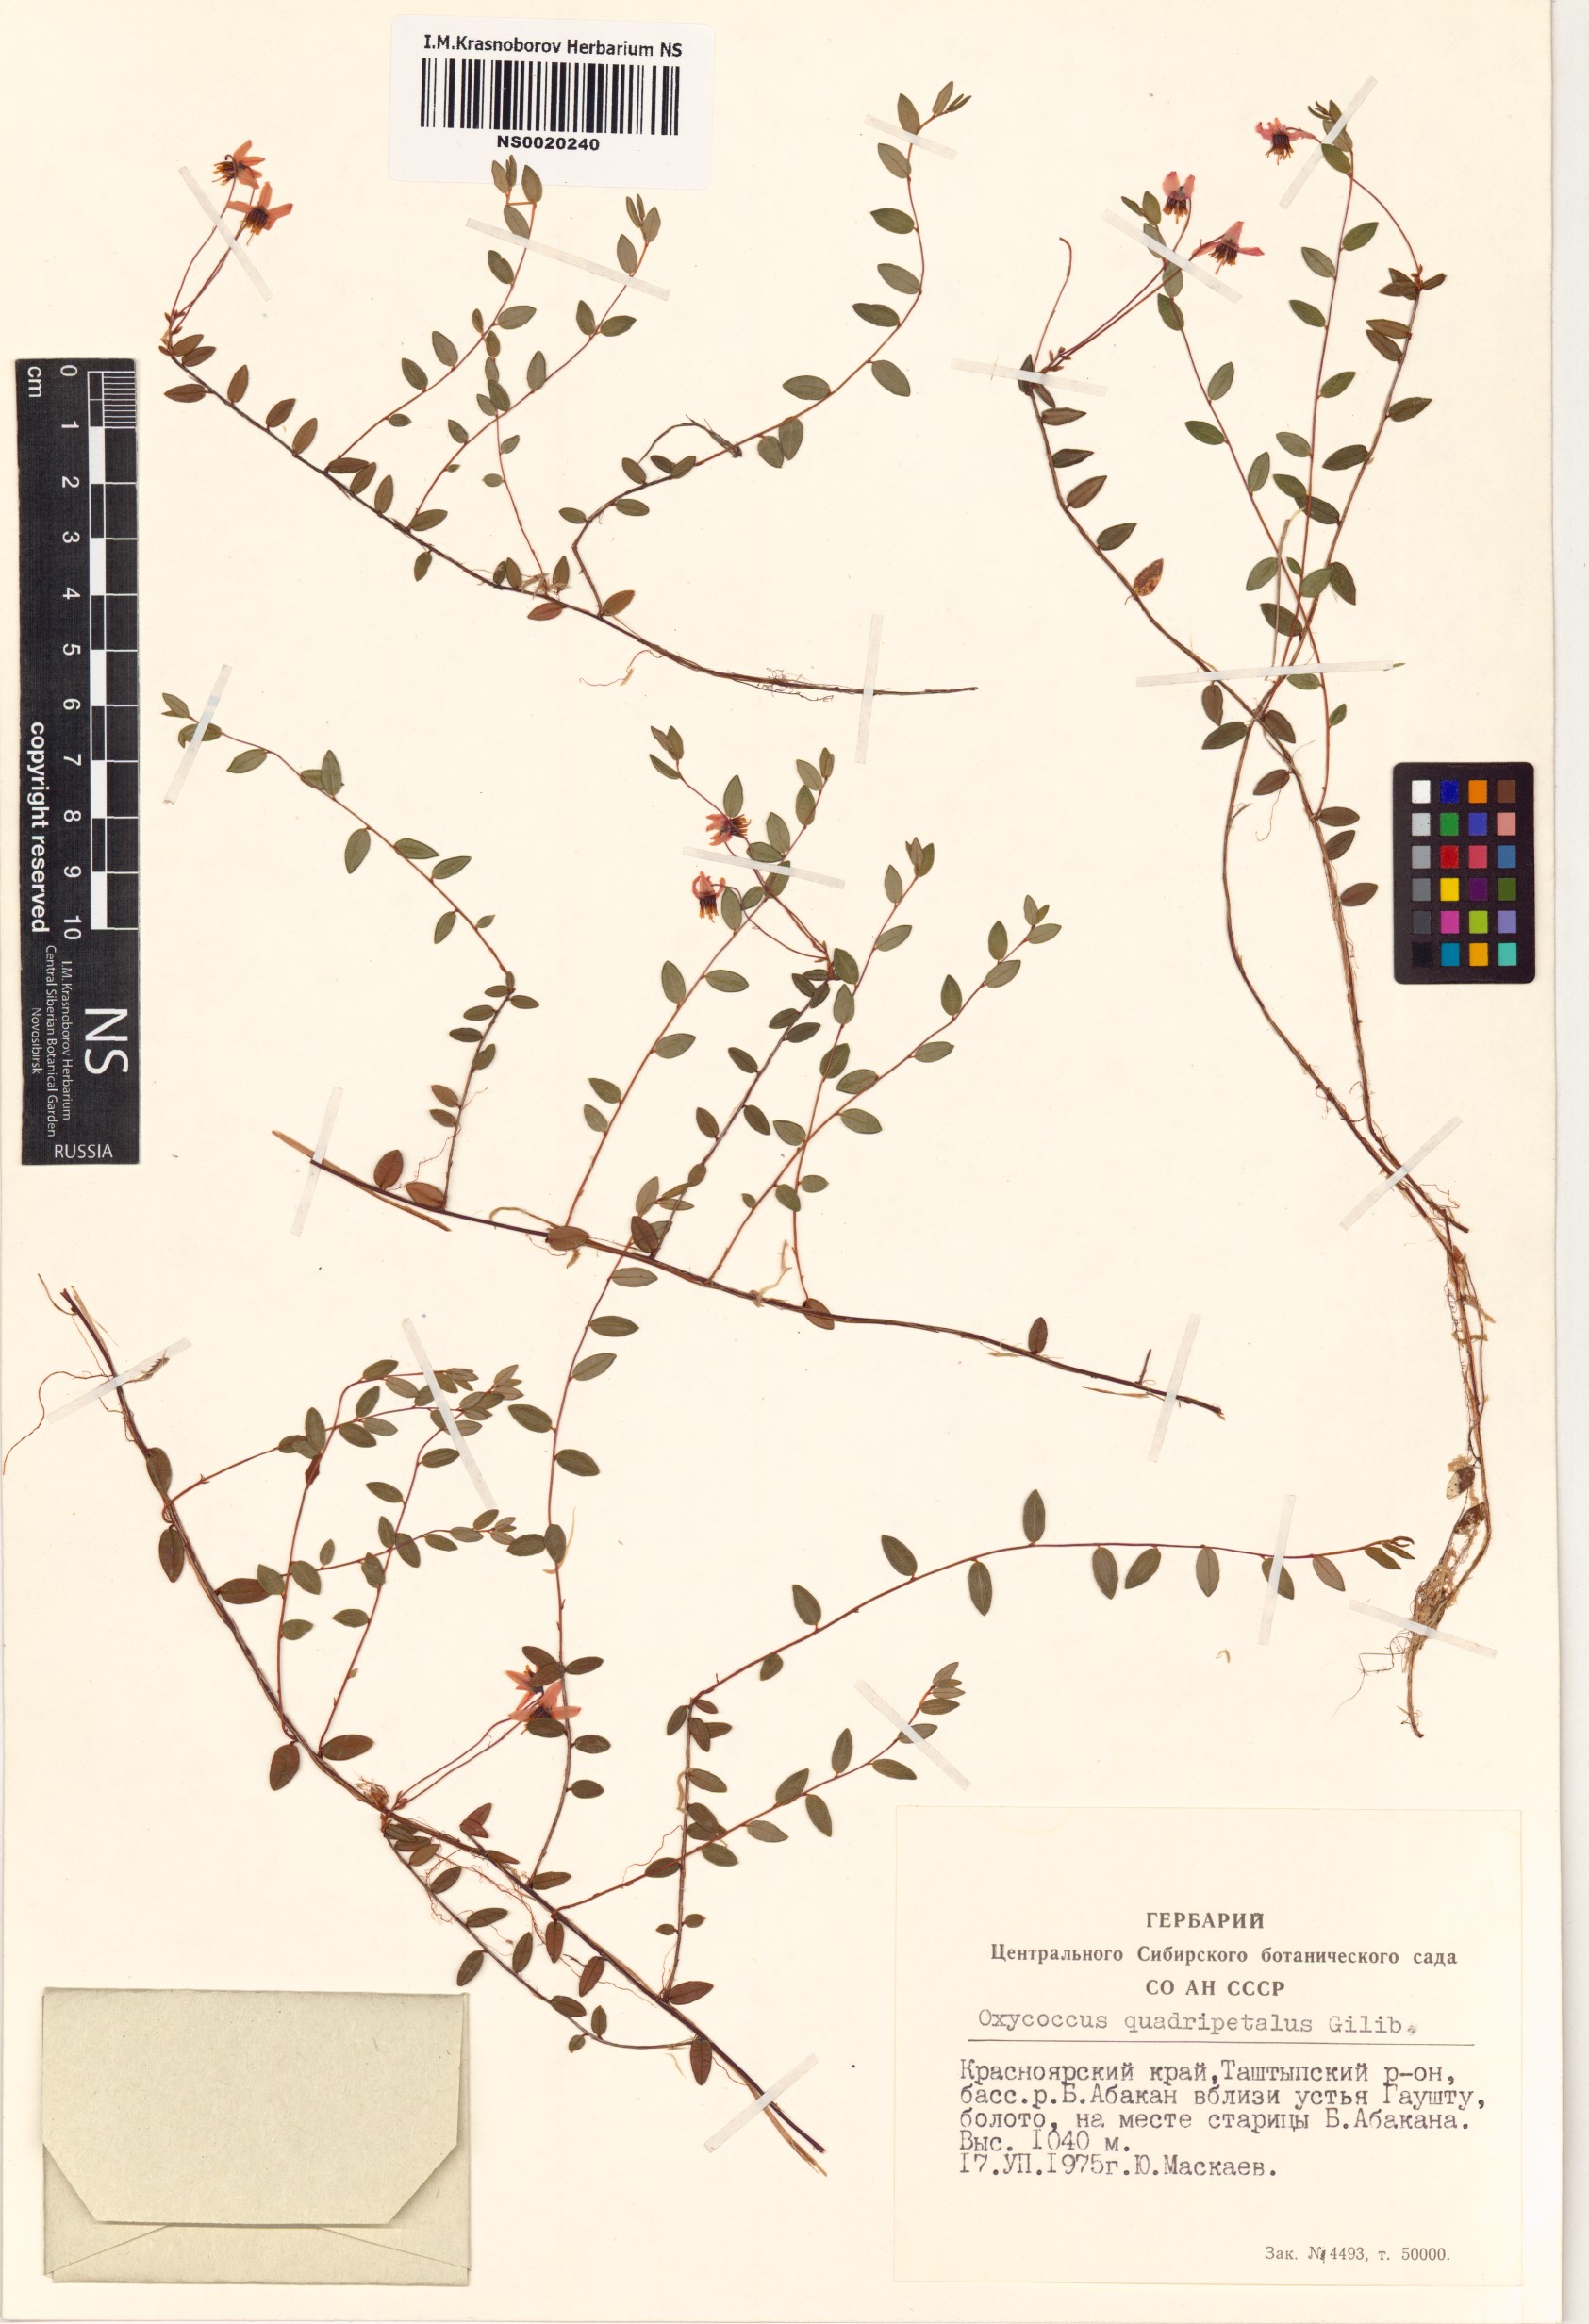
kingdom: Plantae
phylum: Tracheophyta
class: Magnoliopsida
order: Ericales
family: Ericaceae
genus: Vaccinium
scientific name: Vaccinium oxycoccos
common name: Cranberry
